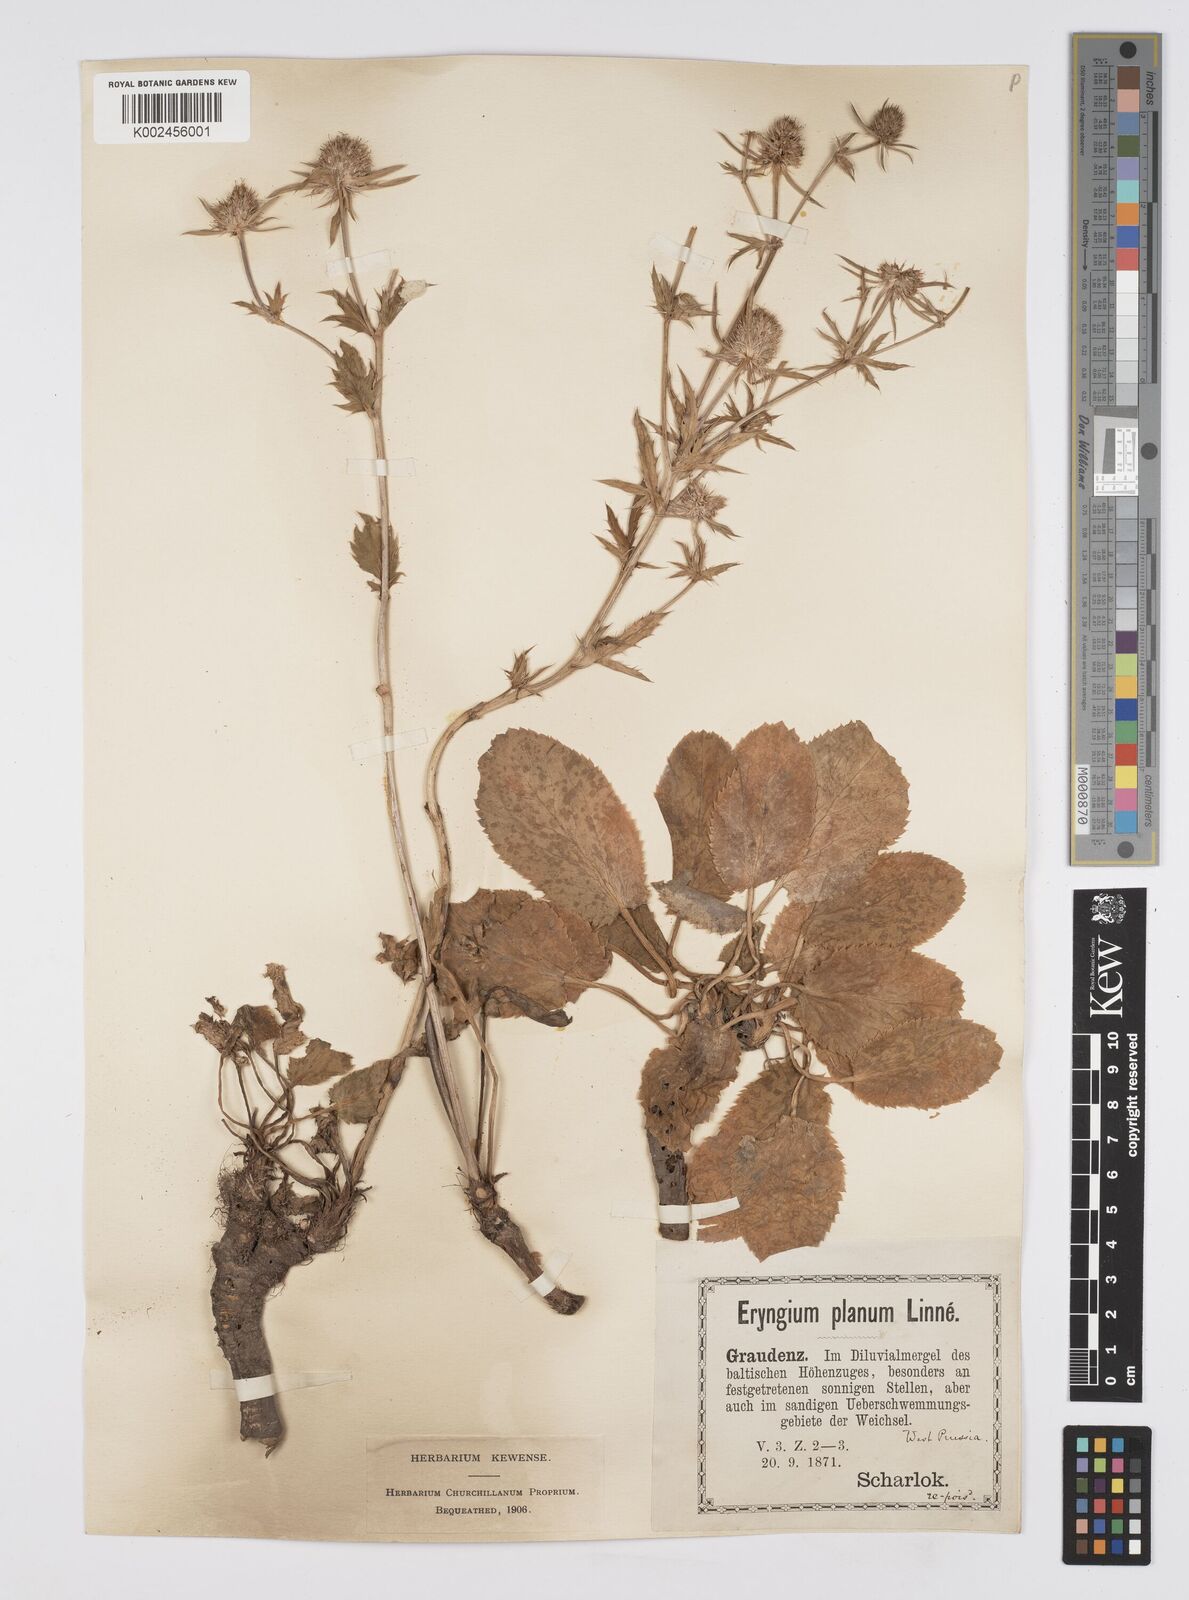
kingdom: Plantae
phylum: Tracheophyta
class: Magnoliopsida
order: Apiales
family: Apiaceae
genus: Eryngium
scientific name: Eryngium planum
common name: Blue eryngo
